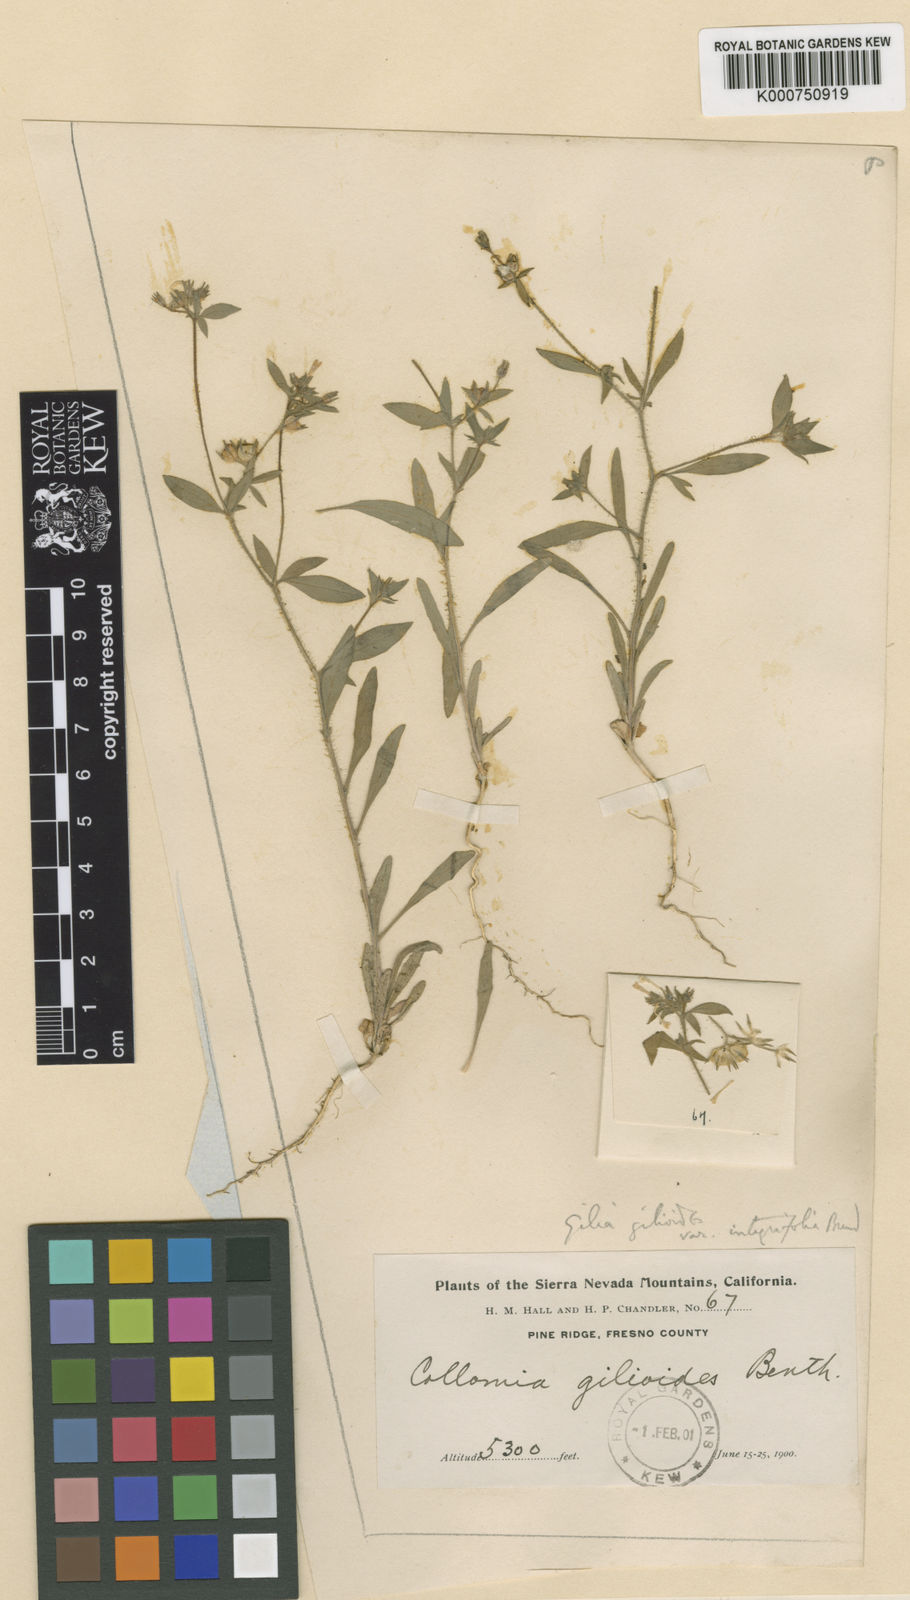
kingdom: Plantae
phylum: Tracheophyta
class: Magnoliopsida
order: Ericales
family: Polemoniaceae
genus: Allophyllum
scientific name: Allophyllum gilioides
